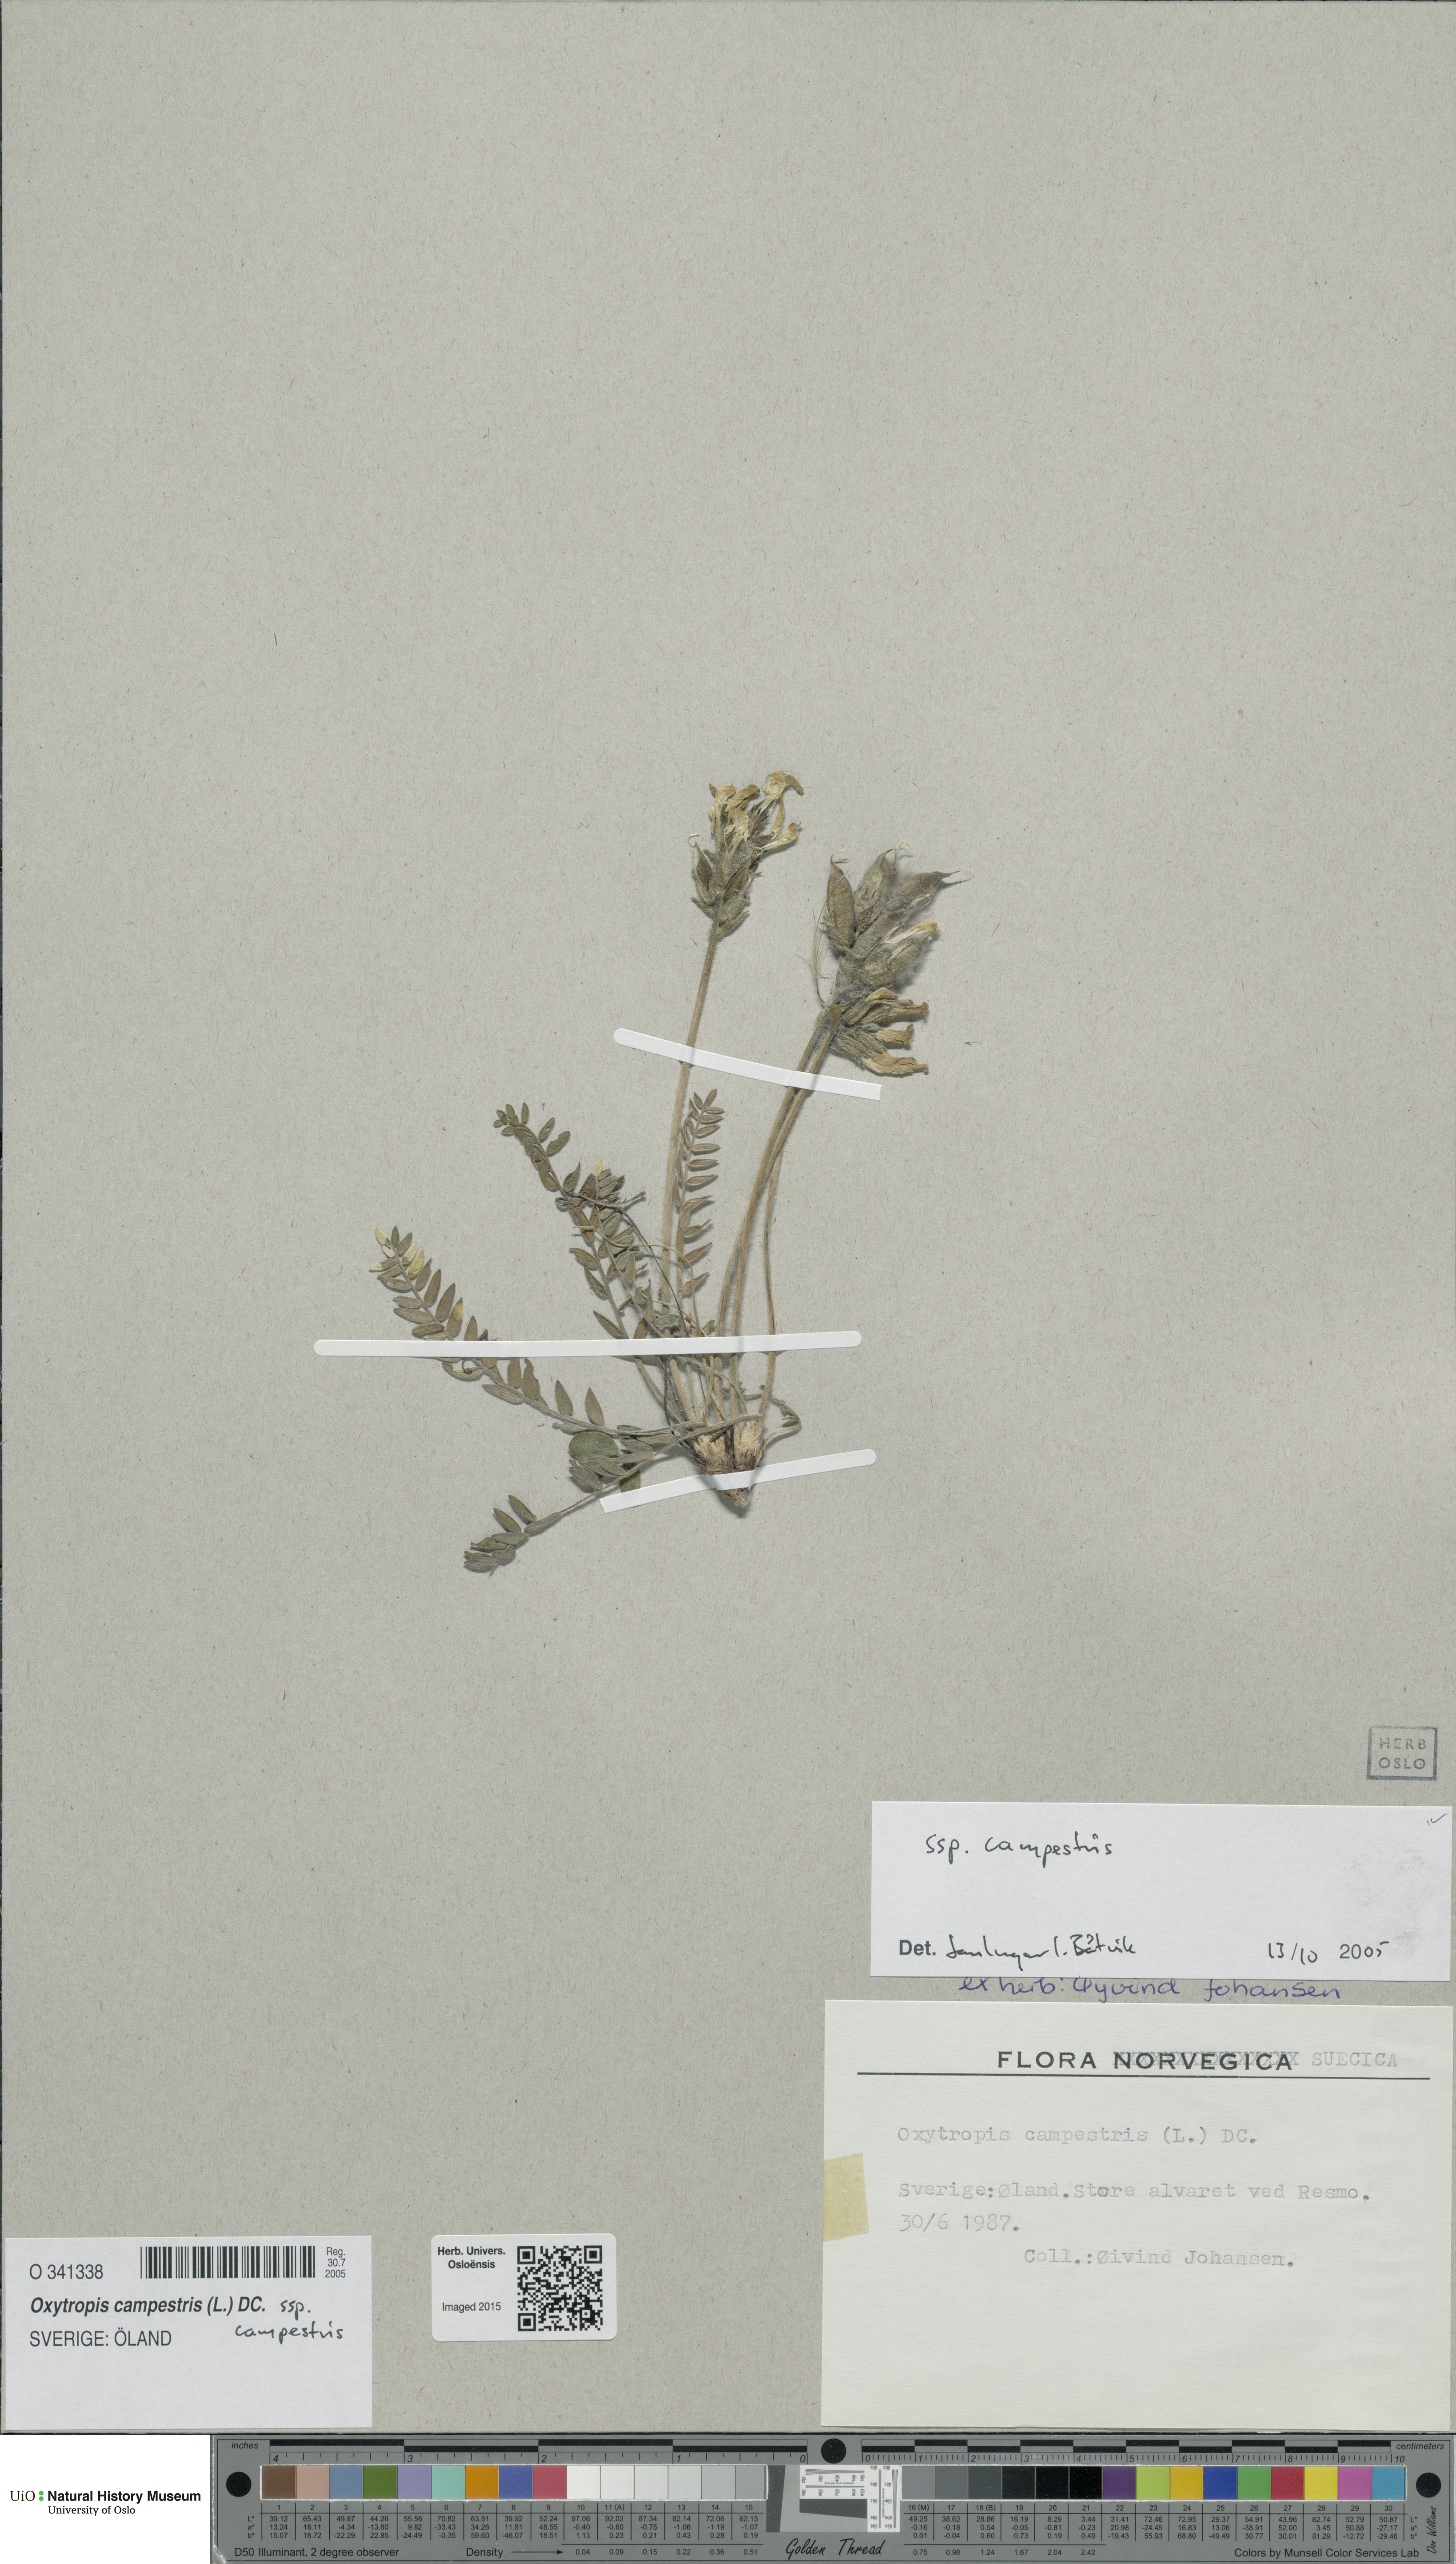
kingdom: Plantae
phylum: Tracheophyta
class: Magnoliopsida
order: Fabales
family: Fabaceae
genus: Oxytropis
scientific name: Oxytropis campestris
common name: Field locoweed
